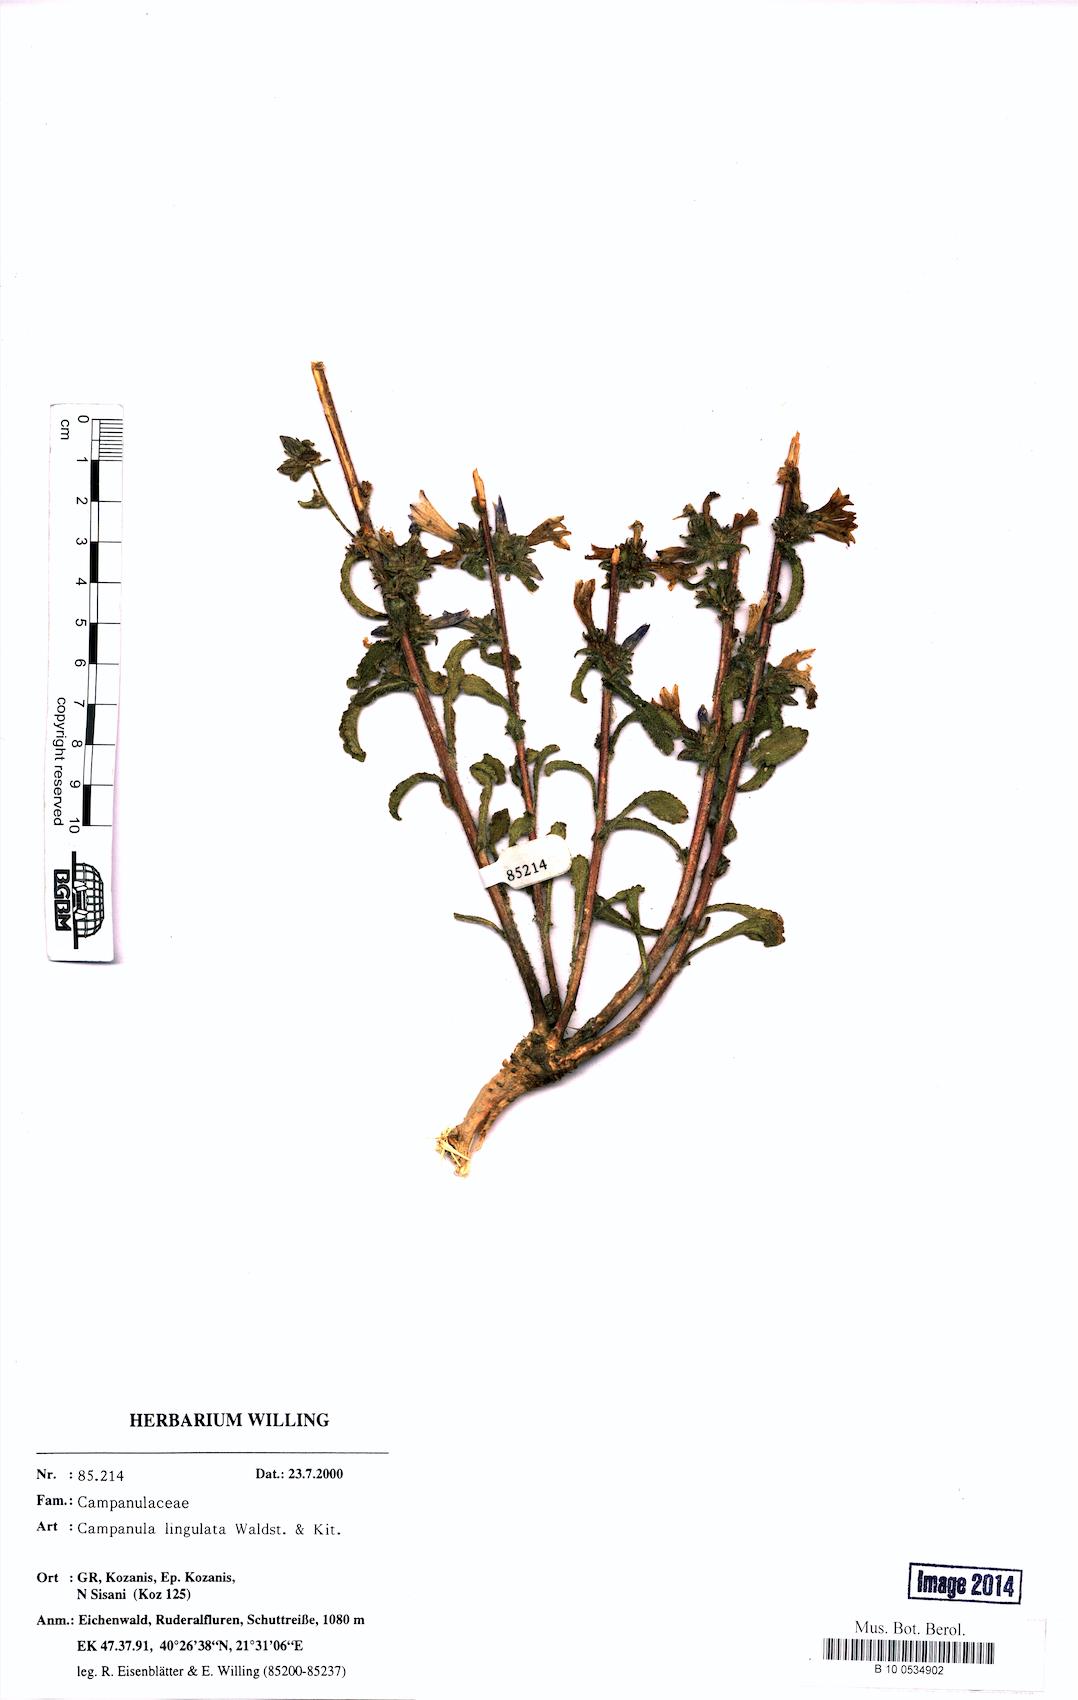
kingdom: Plantae
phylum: Tracheophyta
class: Magnoliopsida
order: Asterales
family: Campanulaceae
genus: Campanula
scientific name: Campanula lingulata
